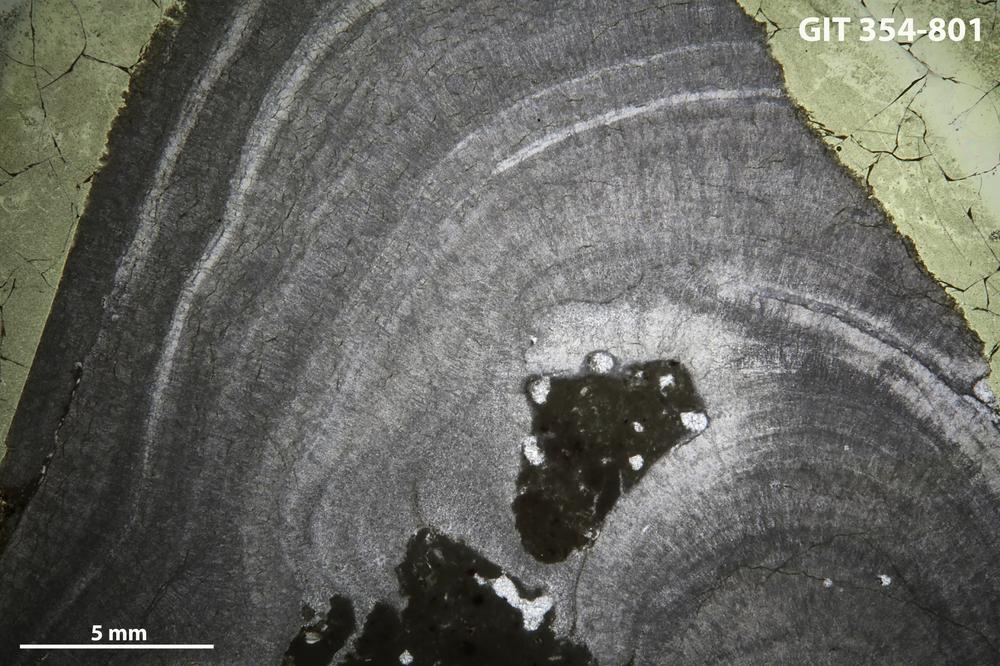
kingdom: Animalia
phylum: Porifera
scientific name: Porifera
